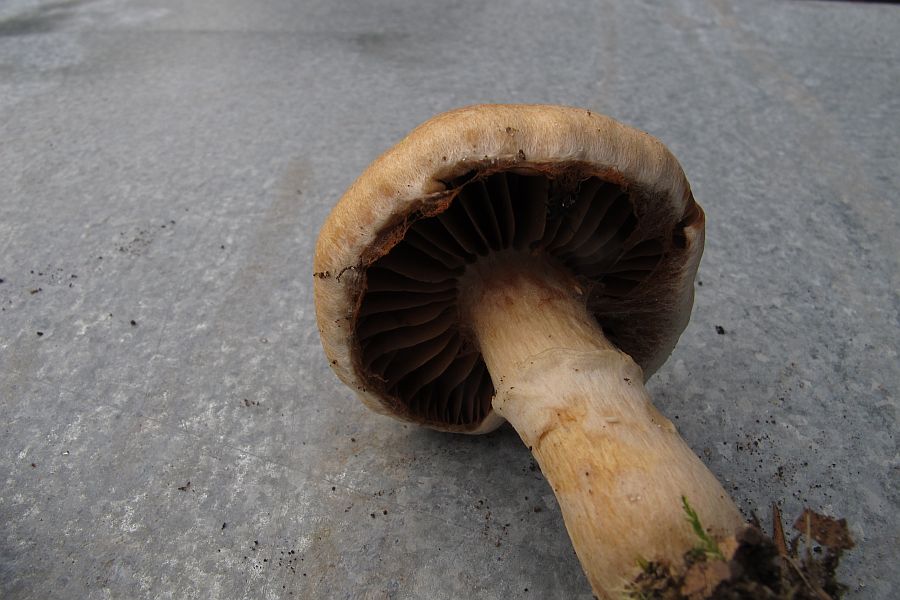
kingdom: Fungi
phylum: Basidiomycota
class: Agaricomycetes
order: Agaricales
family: Cortinariaceae
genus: Cortinarius
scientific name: Cortinarius caperatus
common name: klidhat
